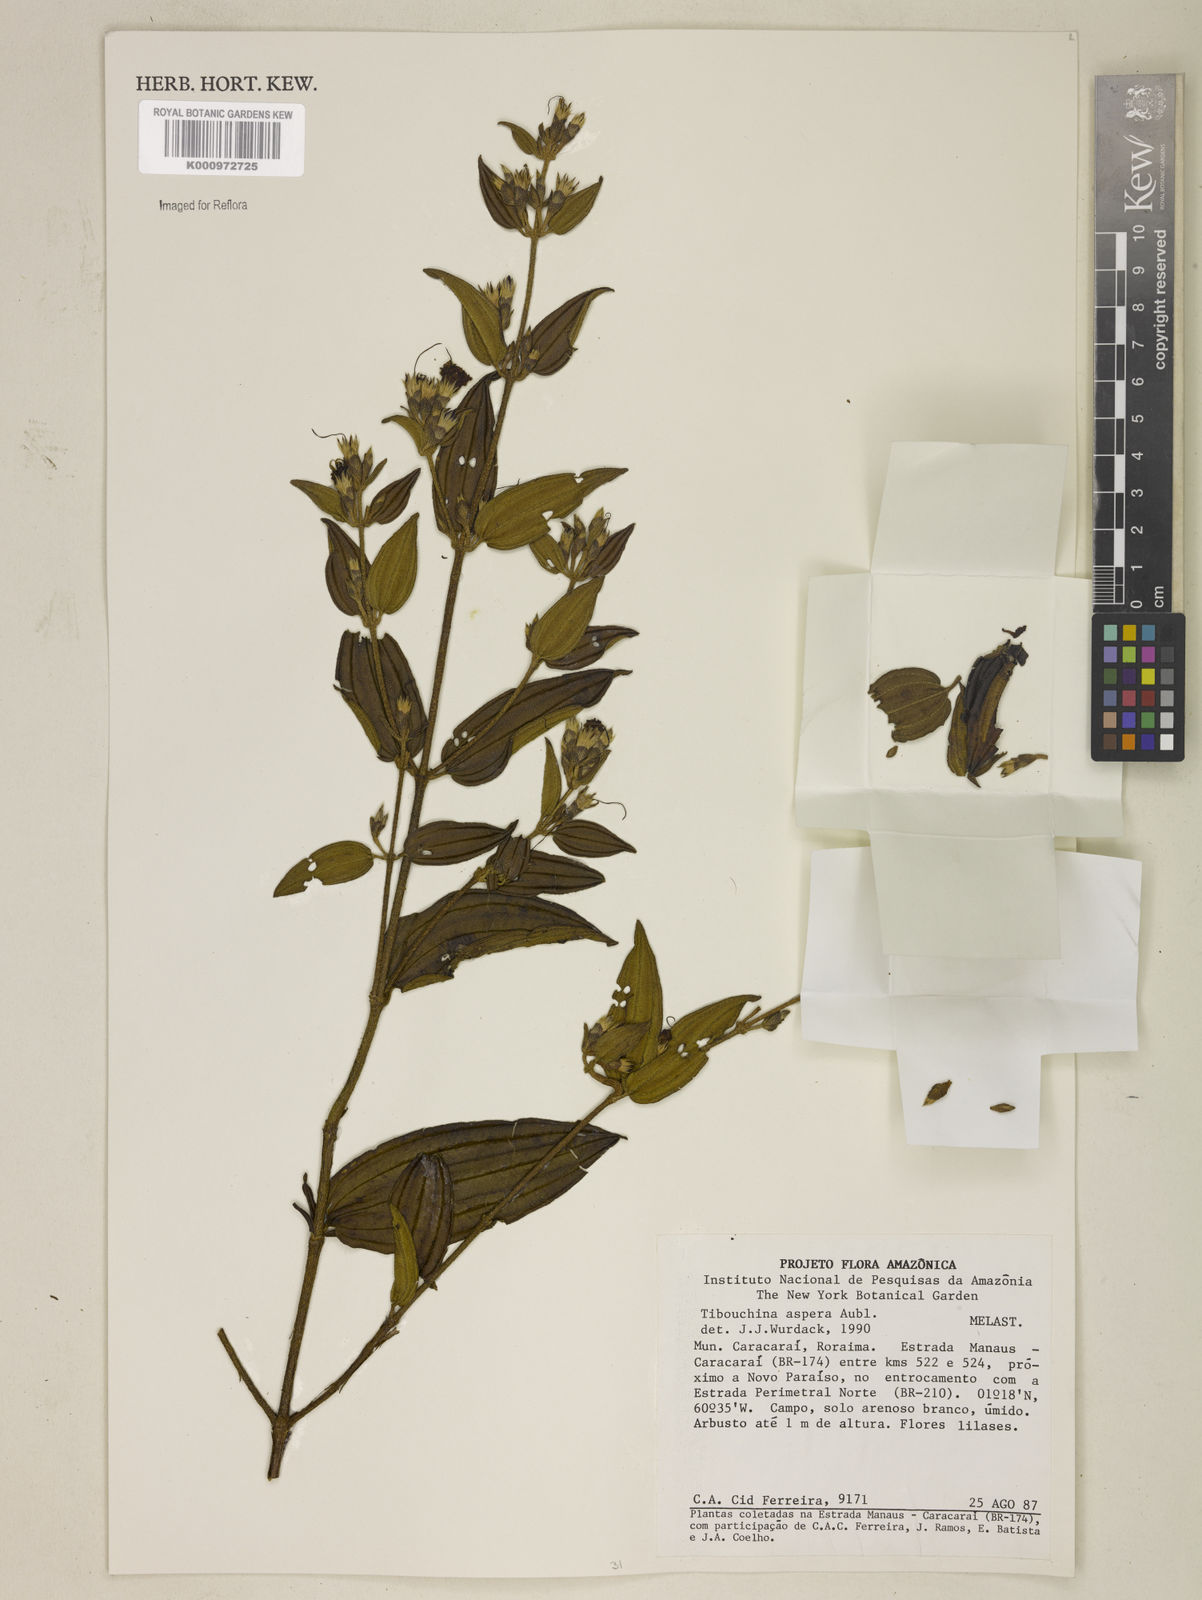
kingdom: Plantae
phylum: Tracheophyta
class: Magnoliopsida
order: Myrtales
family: Melastomataceae
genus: Tibouchina
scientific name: Tibouchina aspera
